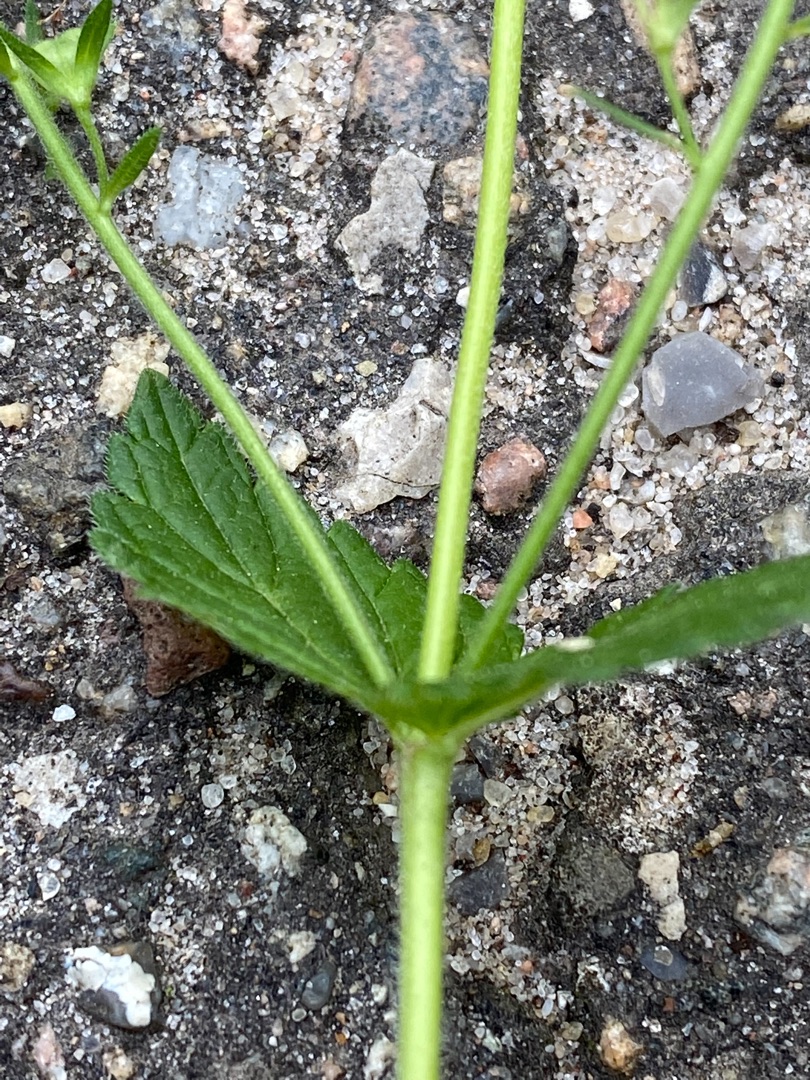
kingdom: Plantae
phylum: Tracheophyta
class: Magnoliopsida
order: Lamiales
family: Plantaginaceae
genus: Veronica
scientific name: Veronica chamaedrys
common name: Tveskægget ærenpris
